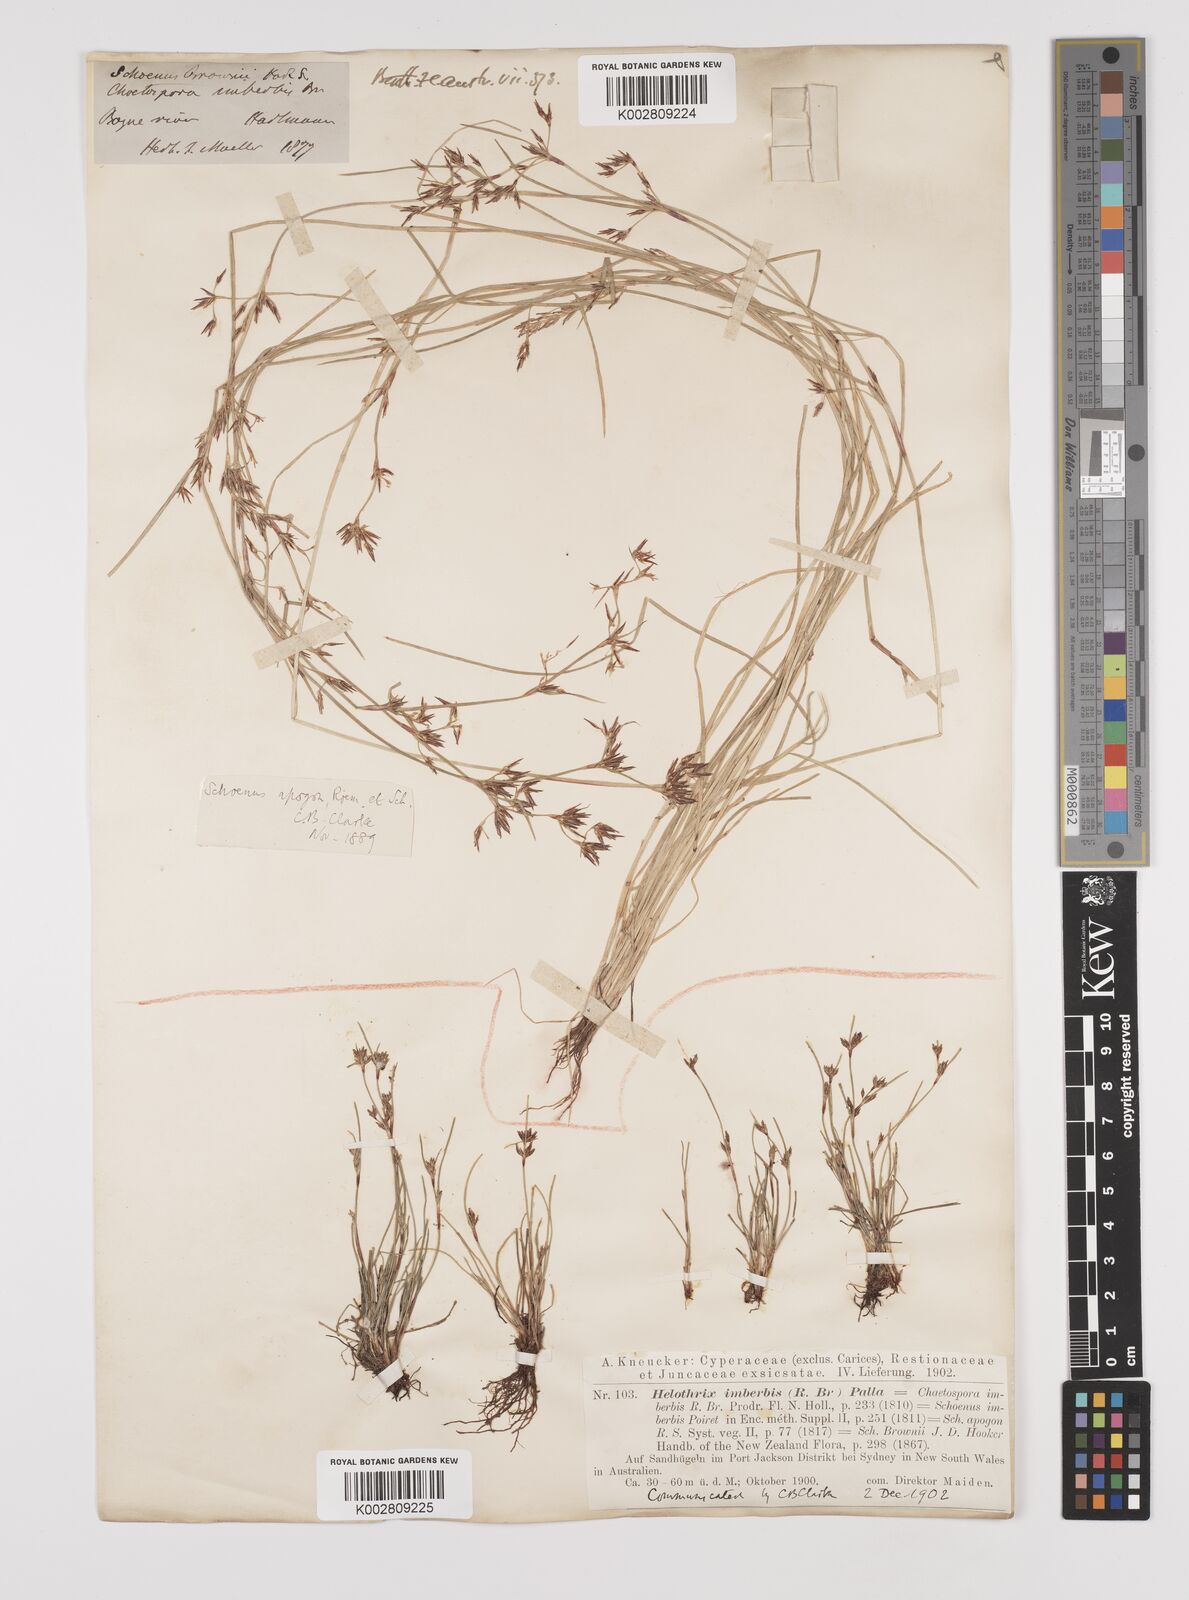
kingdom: Plantae
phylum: Tracheophyta
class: Liliopsida
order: Poales
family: Cyperaceae
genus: Schoenus
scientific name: Schoenus apogon
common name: Smooth bogrush
